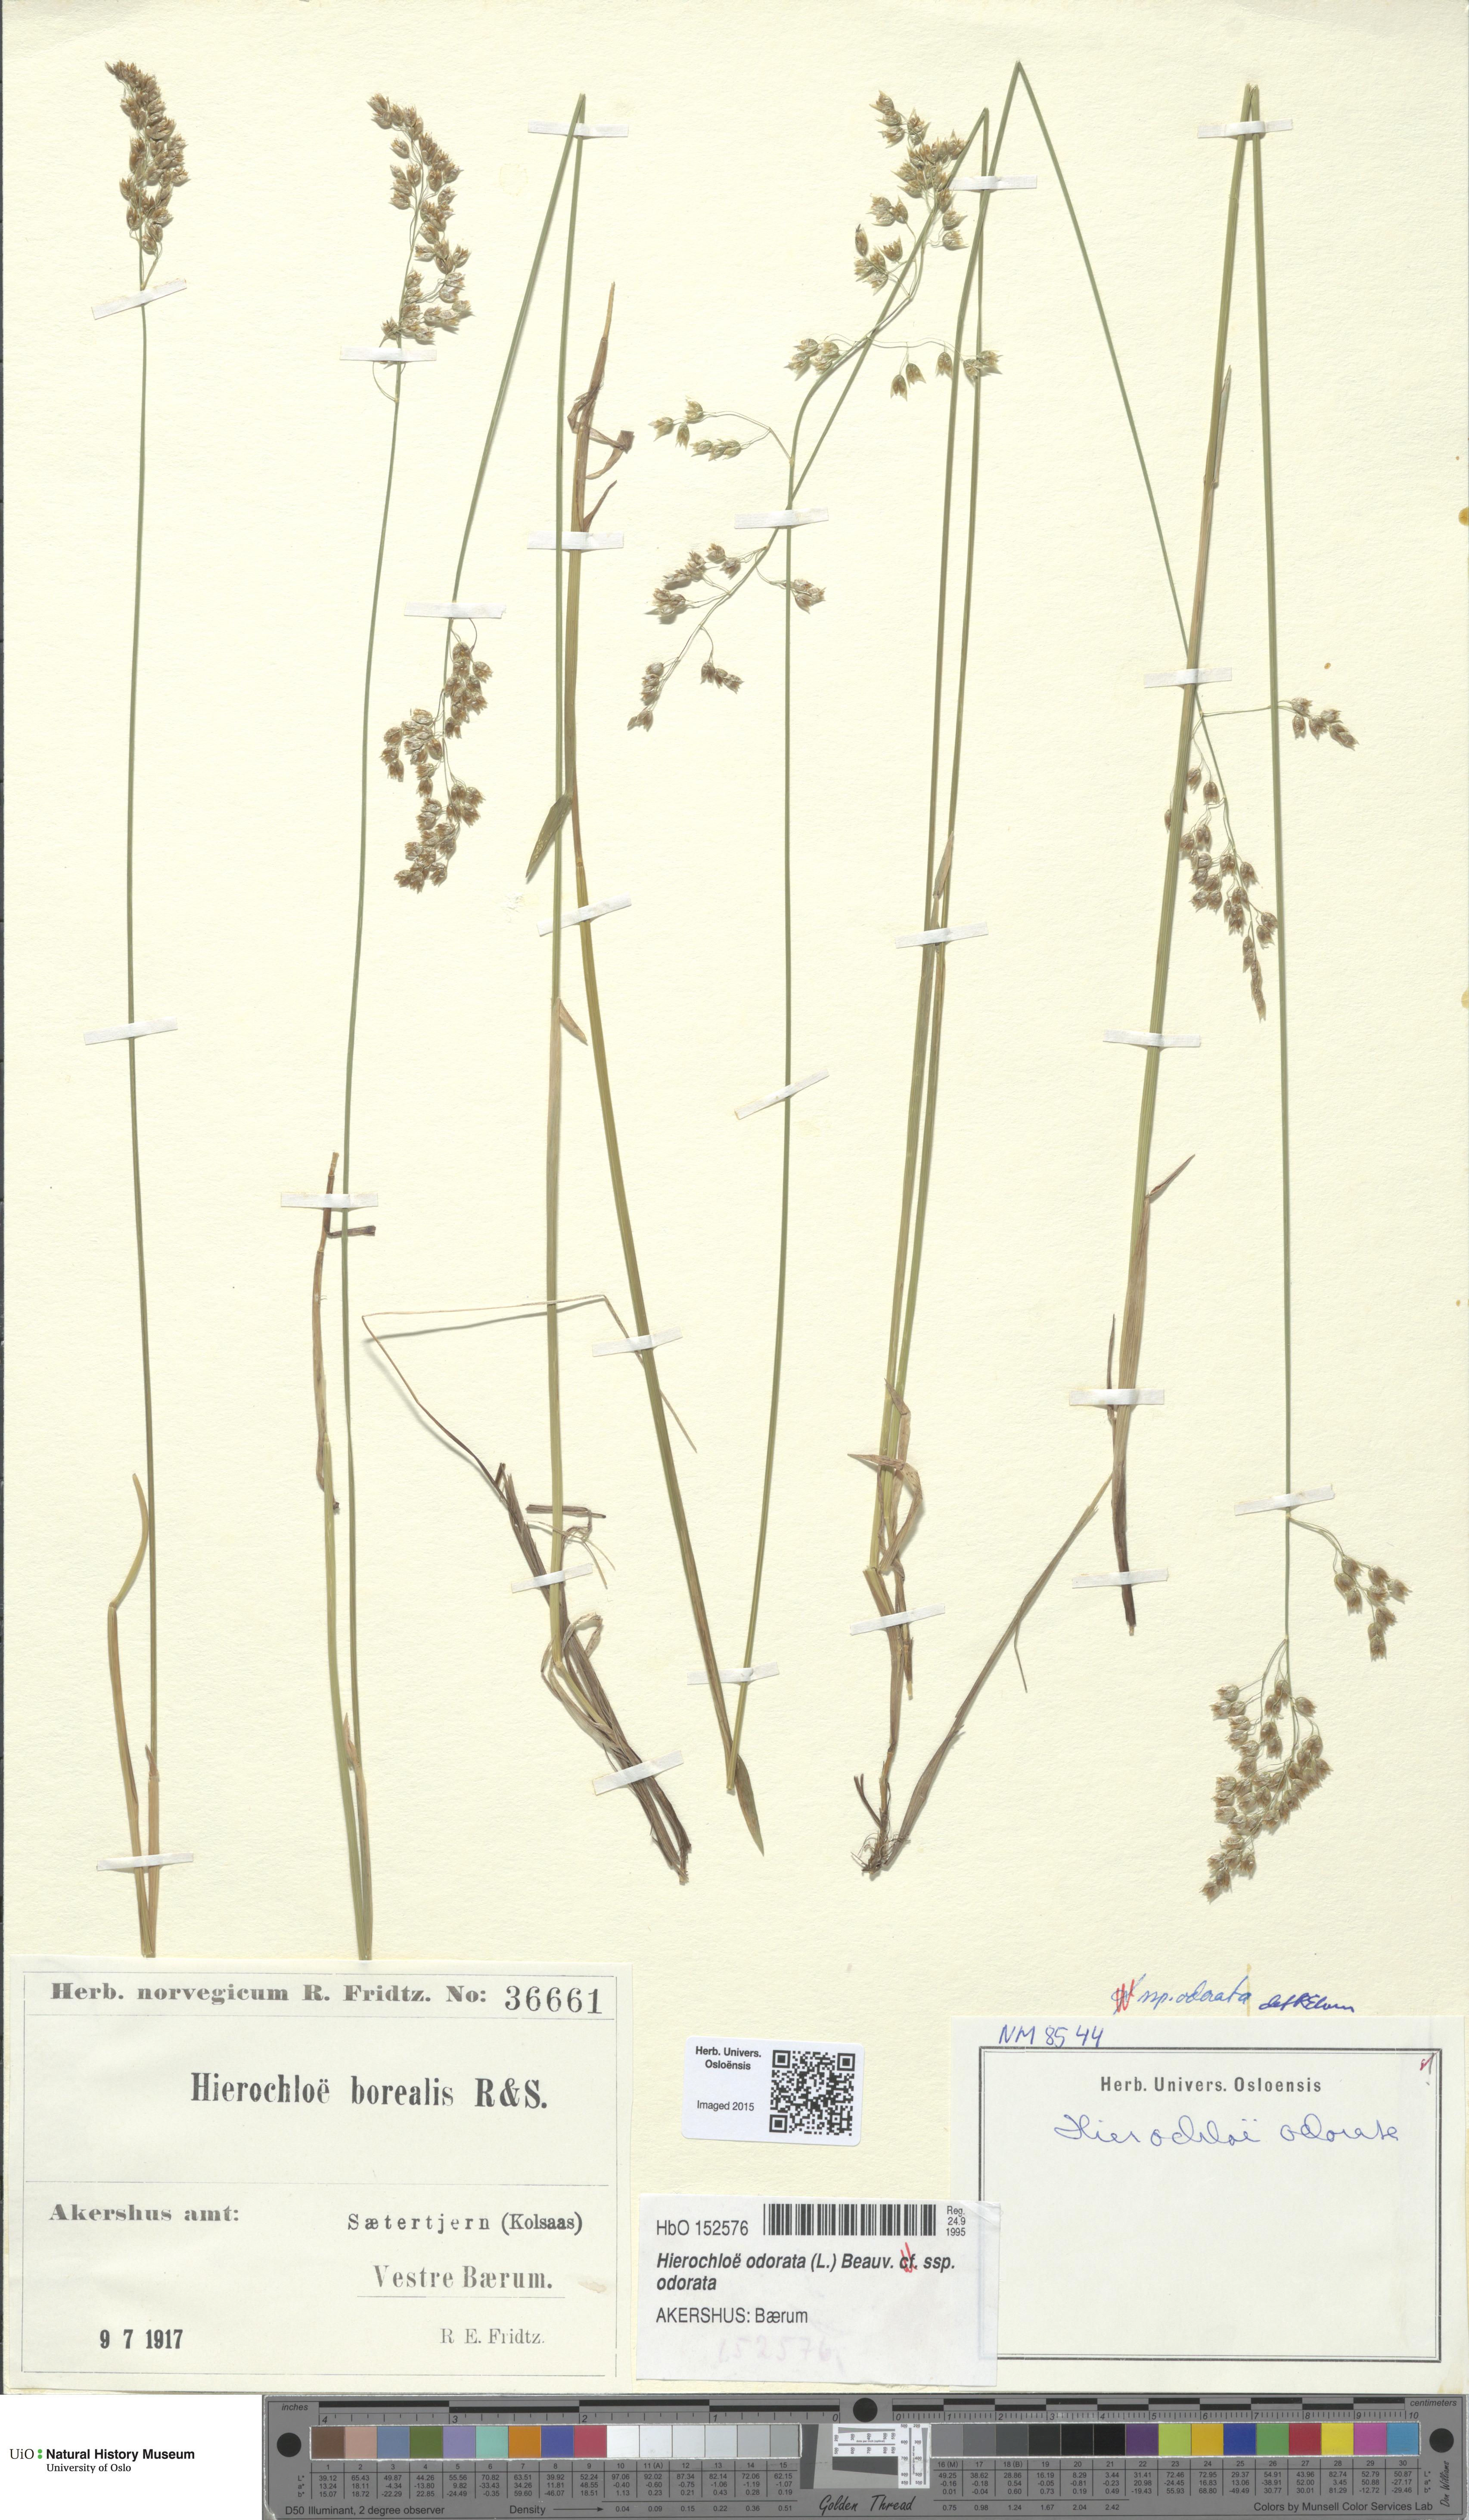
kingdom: Plantae
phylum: Tracheophyta
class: Liliopsida
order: Poales
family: Poaceae
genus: Anthoxanthum
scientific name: Anthoxanthum nitens
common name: Holy grass
